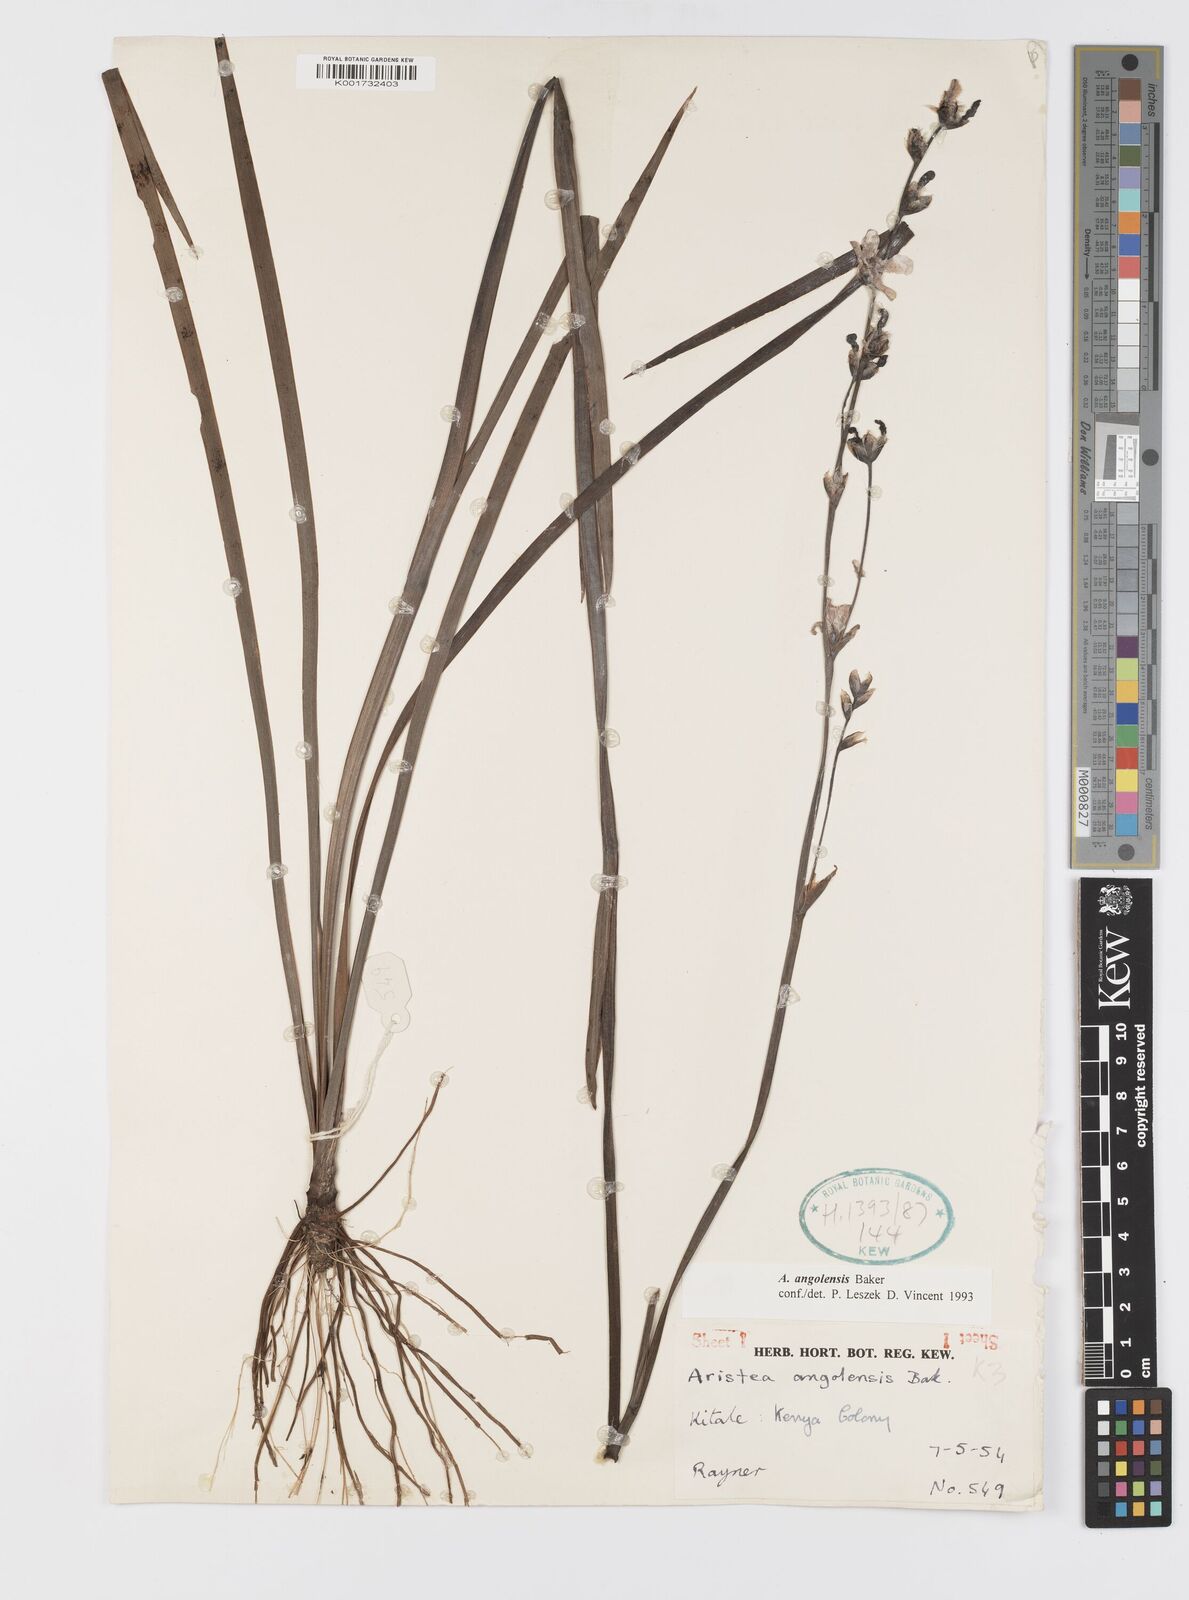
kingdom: Plantae
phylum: Tracheophyta
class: Liliopsida
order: Asparagales
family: Iridaceae
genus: Aristea
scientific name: Aristea angolensis
